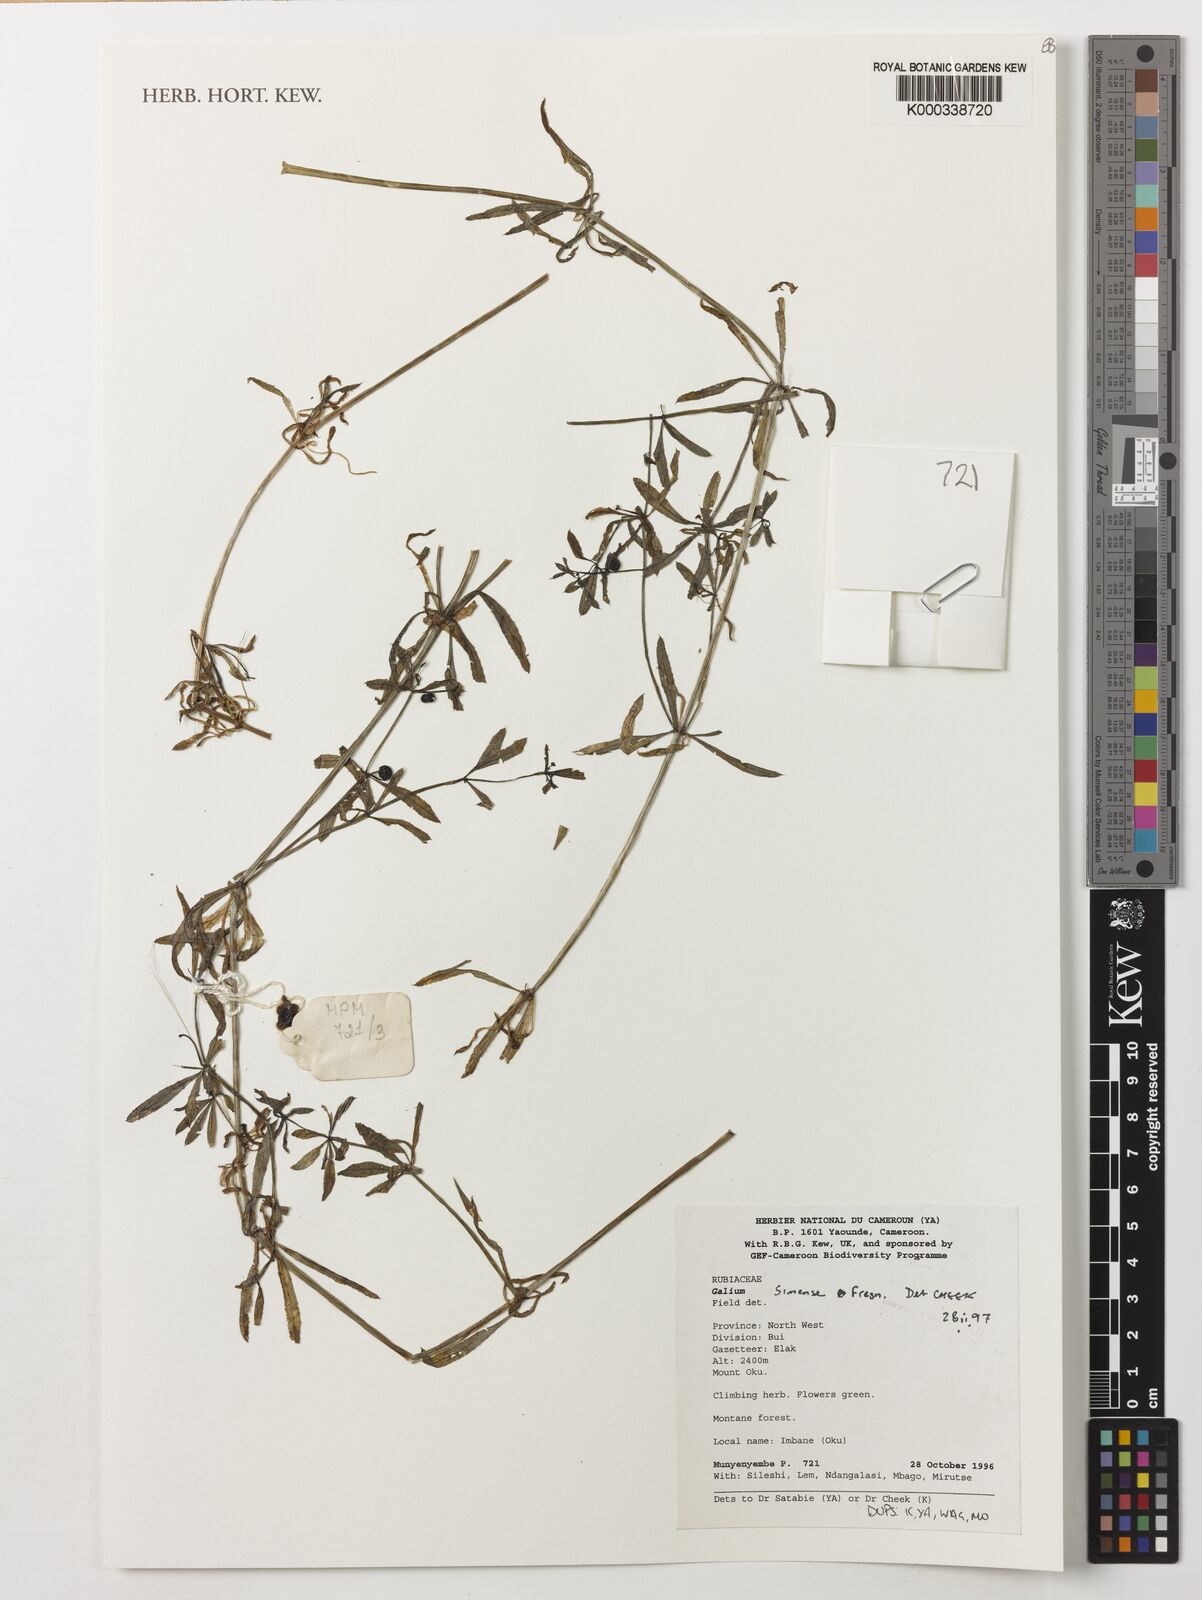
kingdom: Plantae
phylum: Tracheophyta
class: Magnoliopsida
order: Gentianales
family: Rubiaceae
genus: Galium
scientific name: Galium simense
